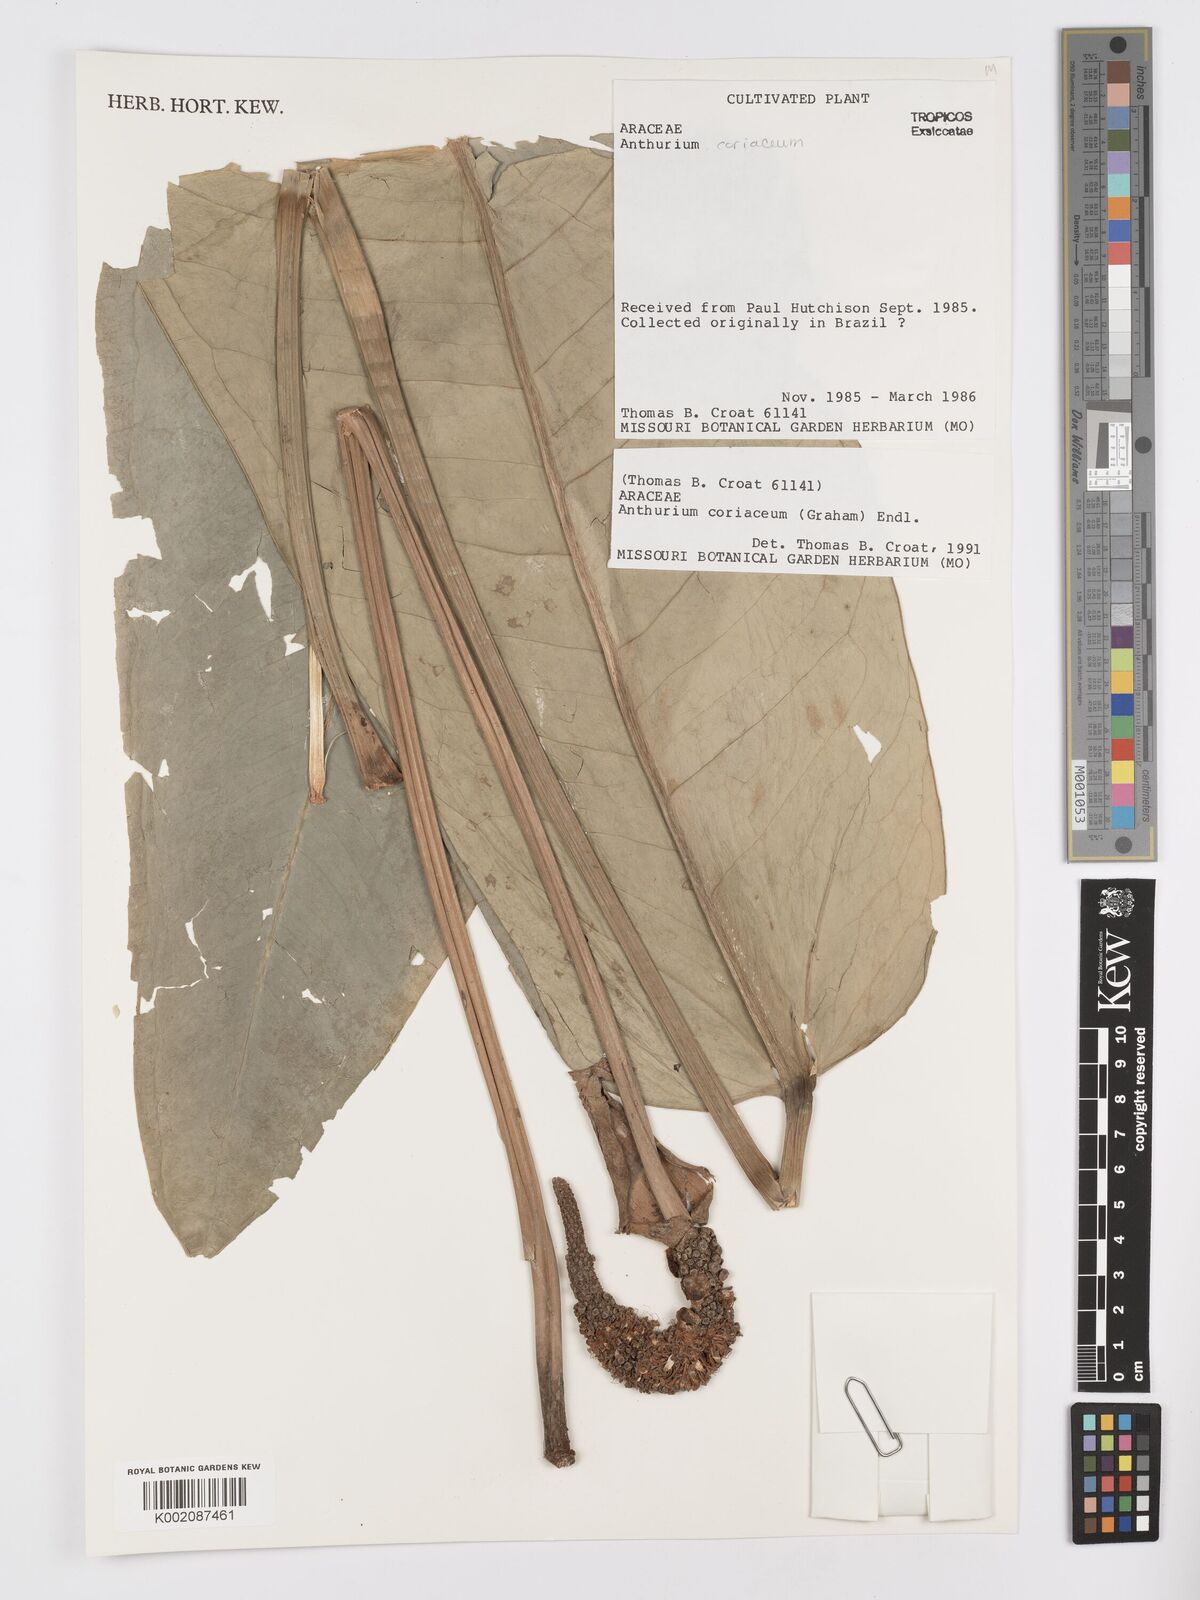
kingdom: Plantae
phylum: Tracheophyta
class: Liliopsida
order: Alismatales
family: Araceae
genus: Anthurium
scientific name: Anthurium
